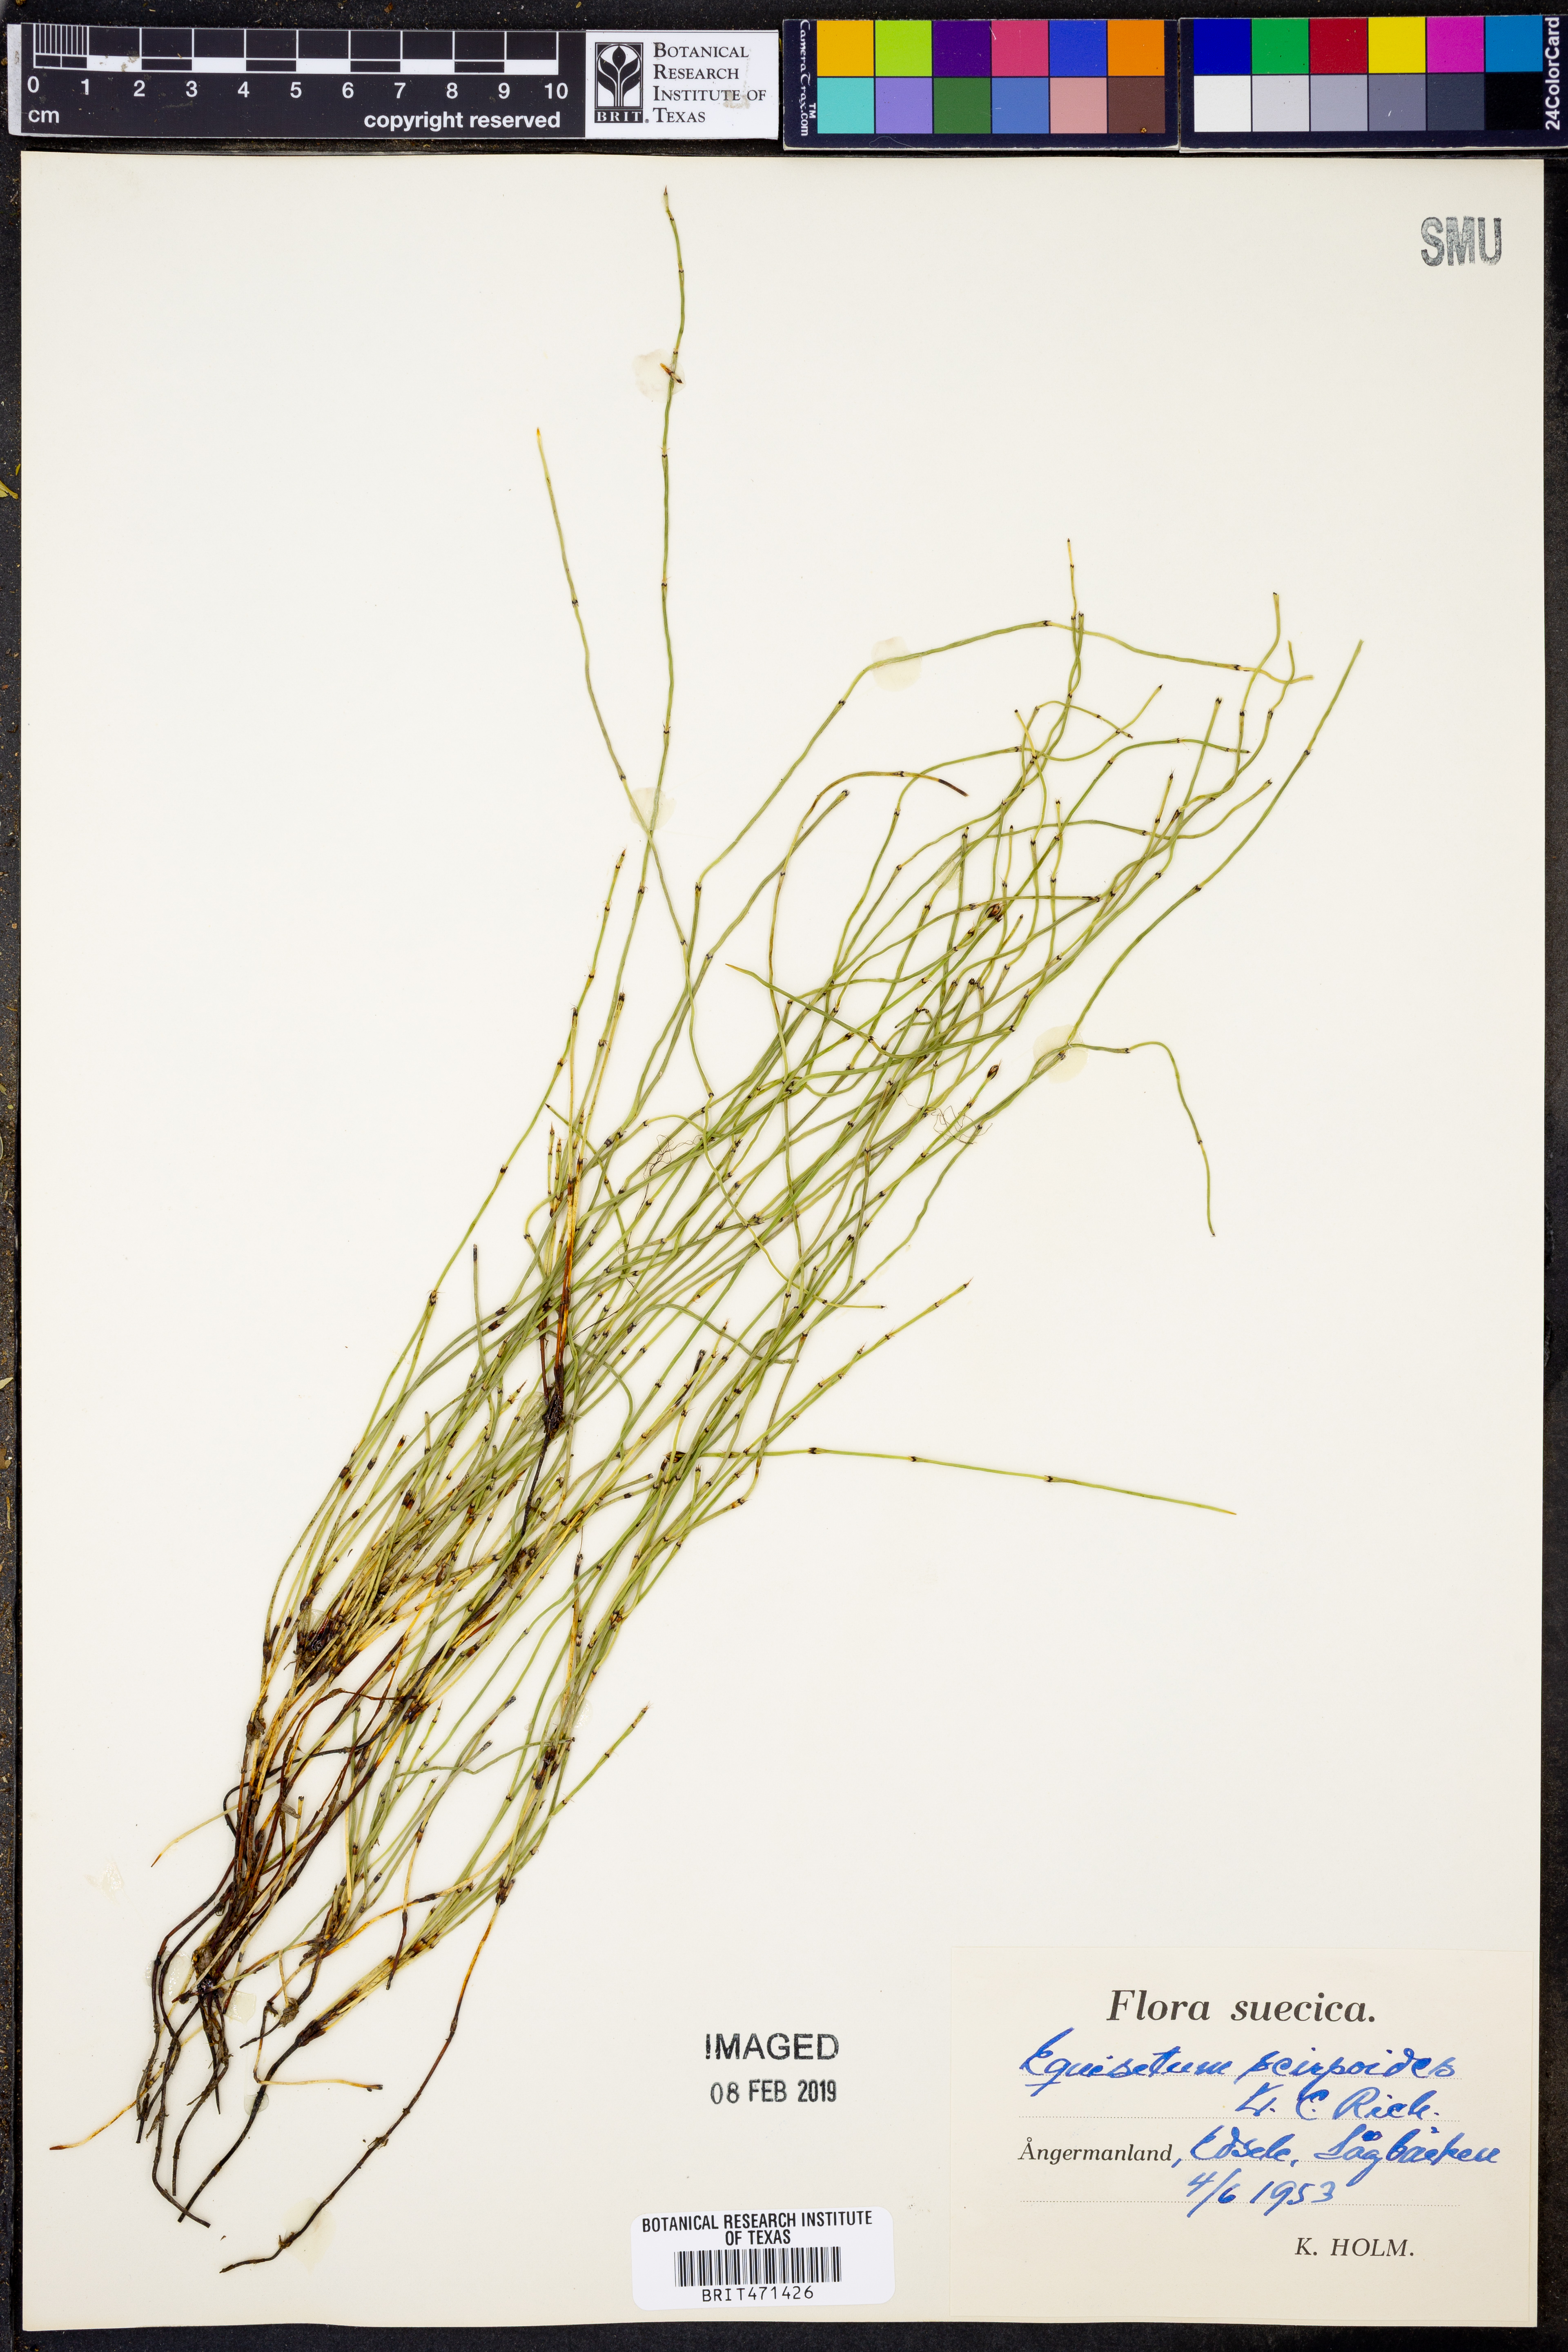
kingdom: Plantae
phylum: Tracheophyta
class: Polypodiopsida
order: Equisetales
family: Equisetaceae
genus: Equisetum
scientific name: Equisetum scirpoides
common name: Delicate horsetail
